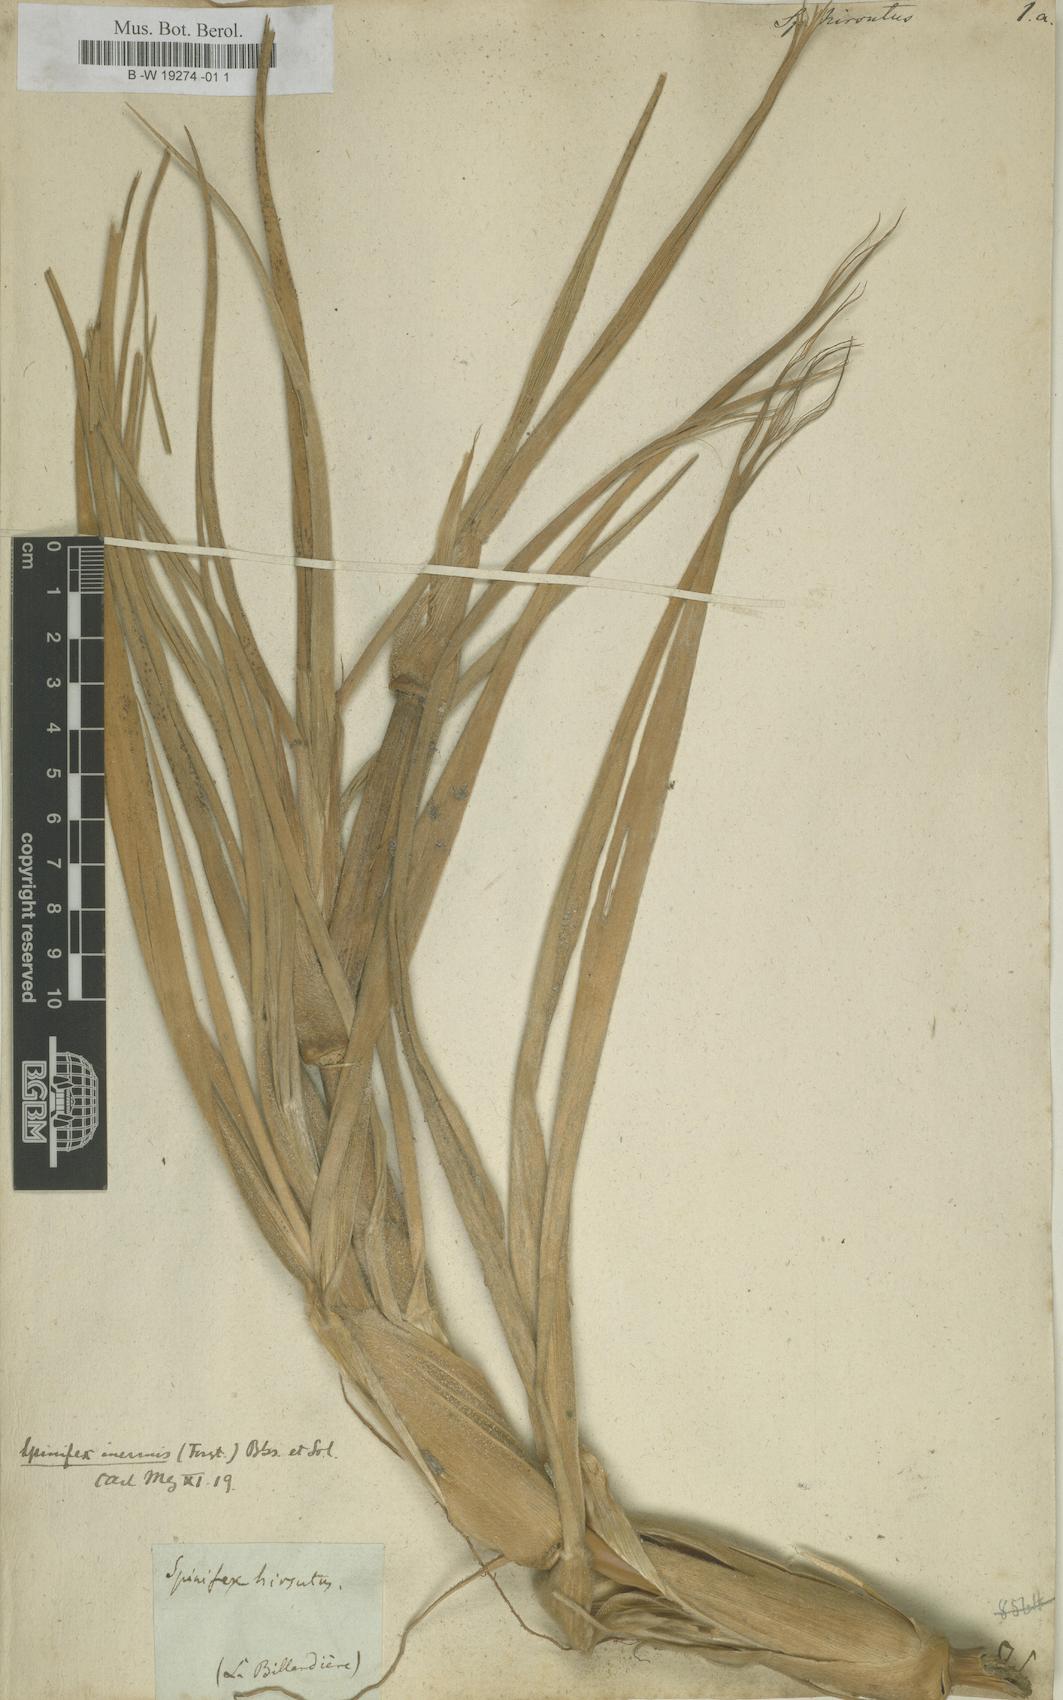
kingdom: Plantae
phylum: Tracheophyta
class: Liliopsida
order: Poales
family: Poaceae
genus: Spinifex
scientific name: Spinifex hirsutus
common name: Hairy spinifex
